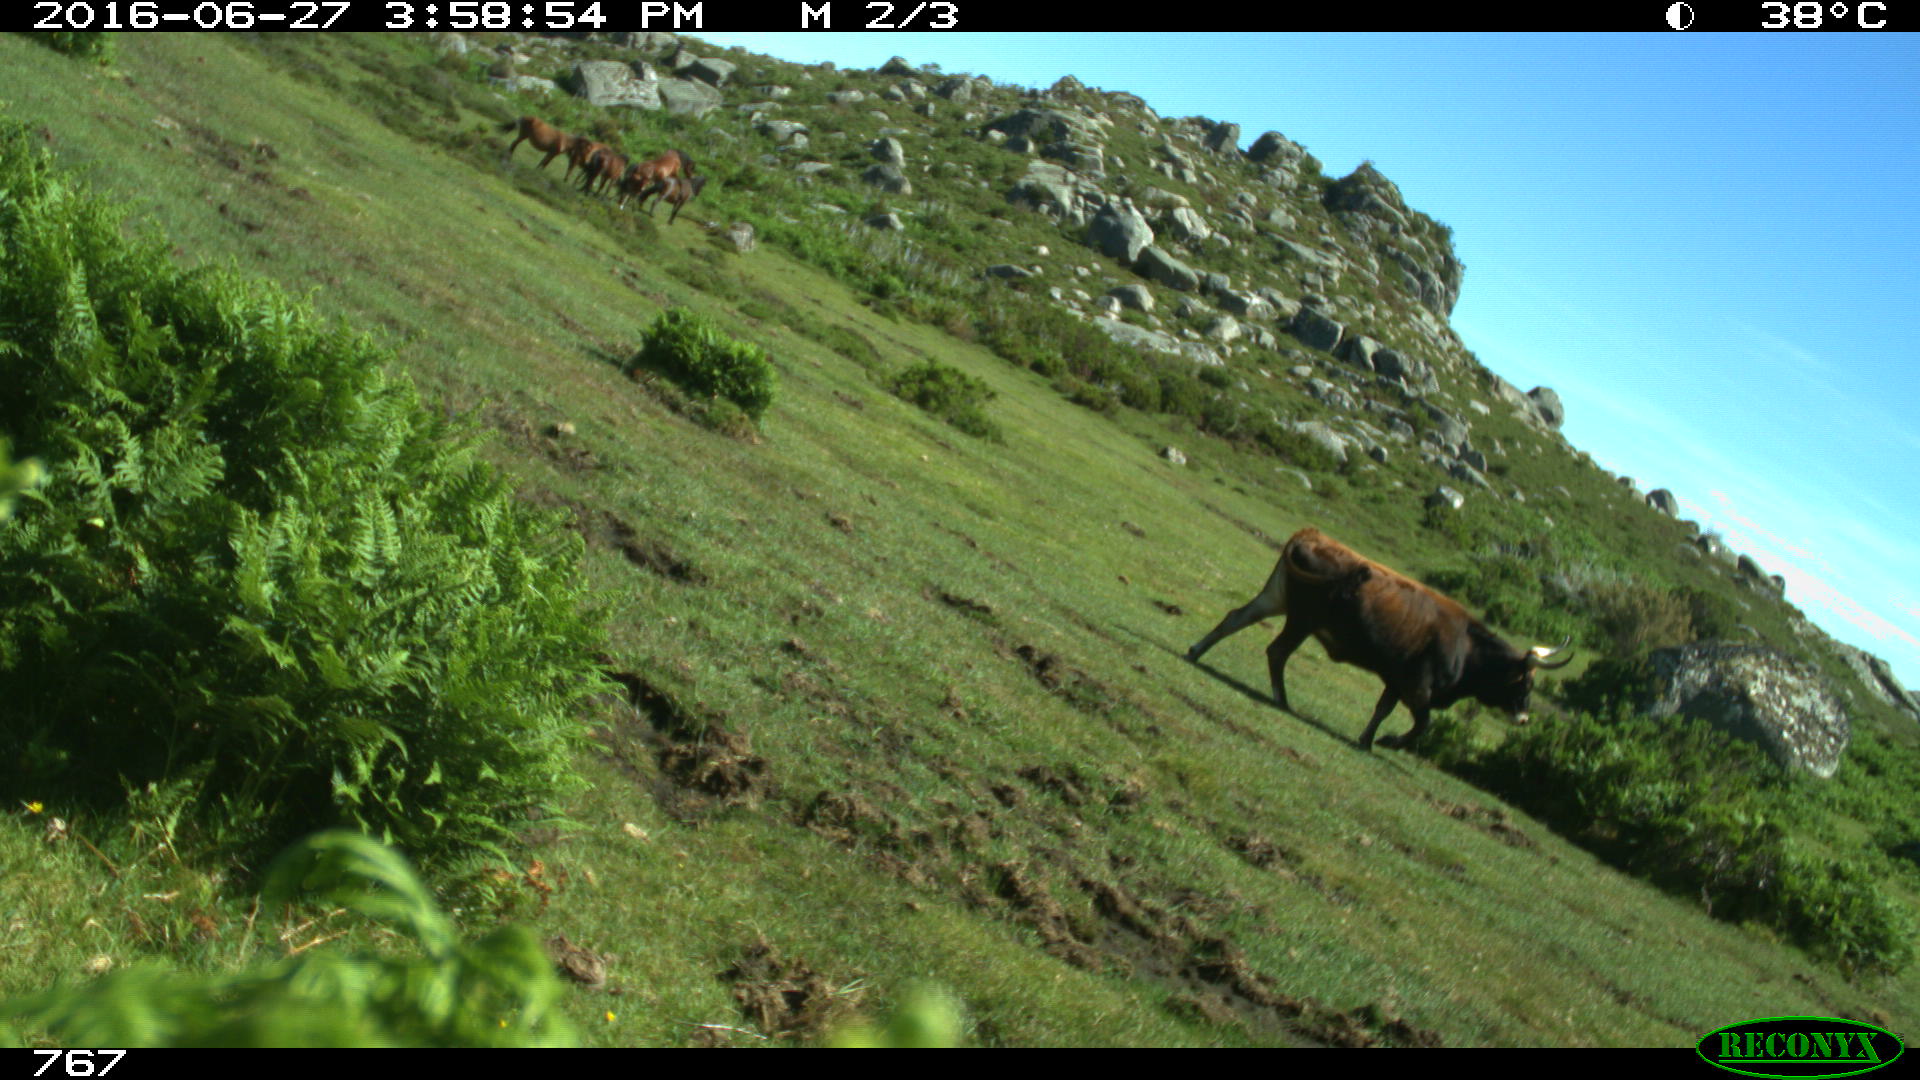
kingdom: Animalia
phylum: Chordata
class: Mammalia
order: Artiodactyla
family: Bovidae
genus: Bos
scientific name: Bos taurus
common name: Domesticated cattle
